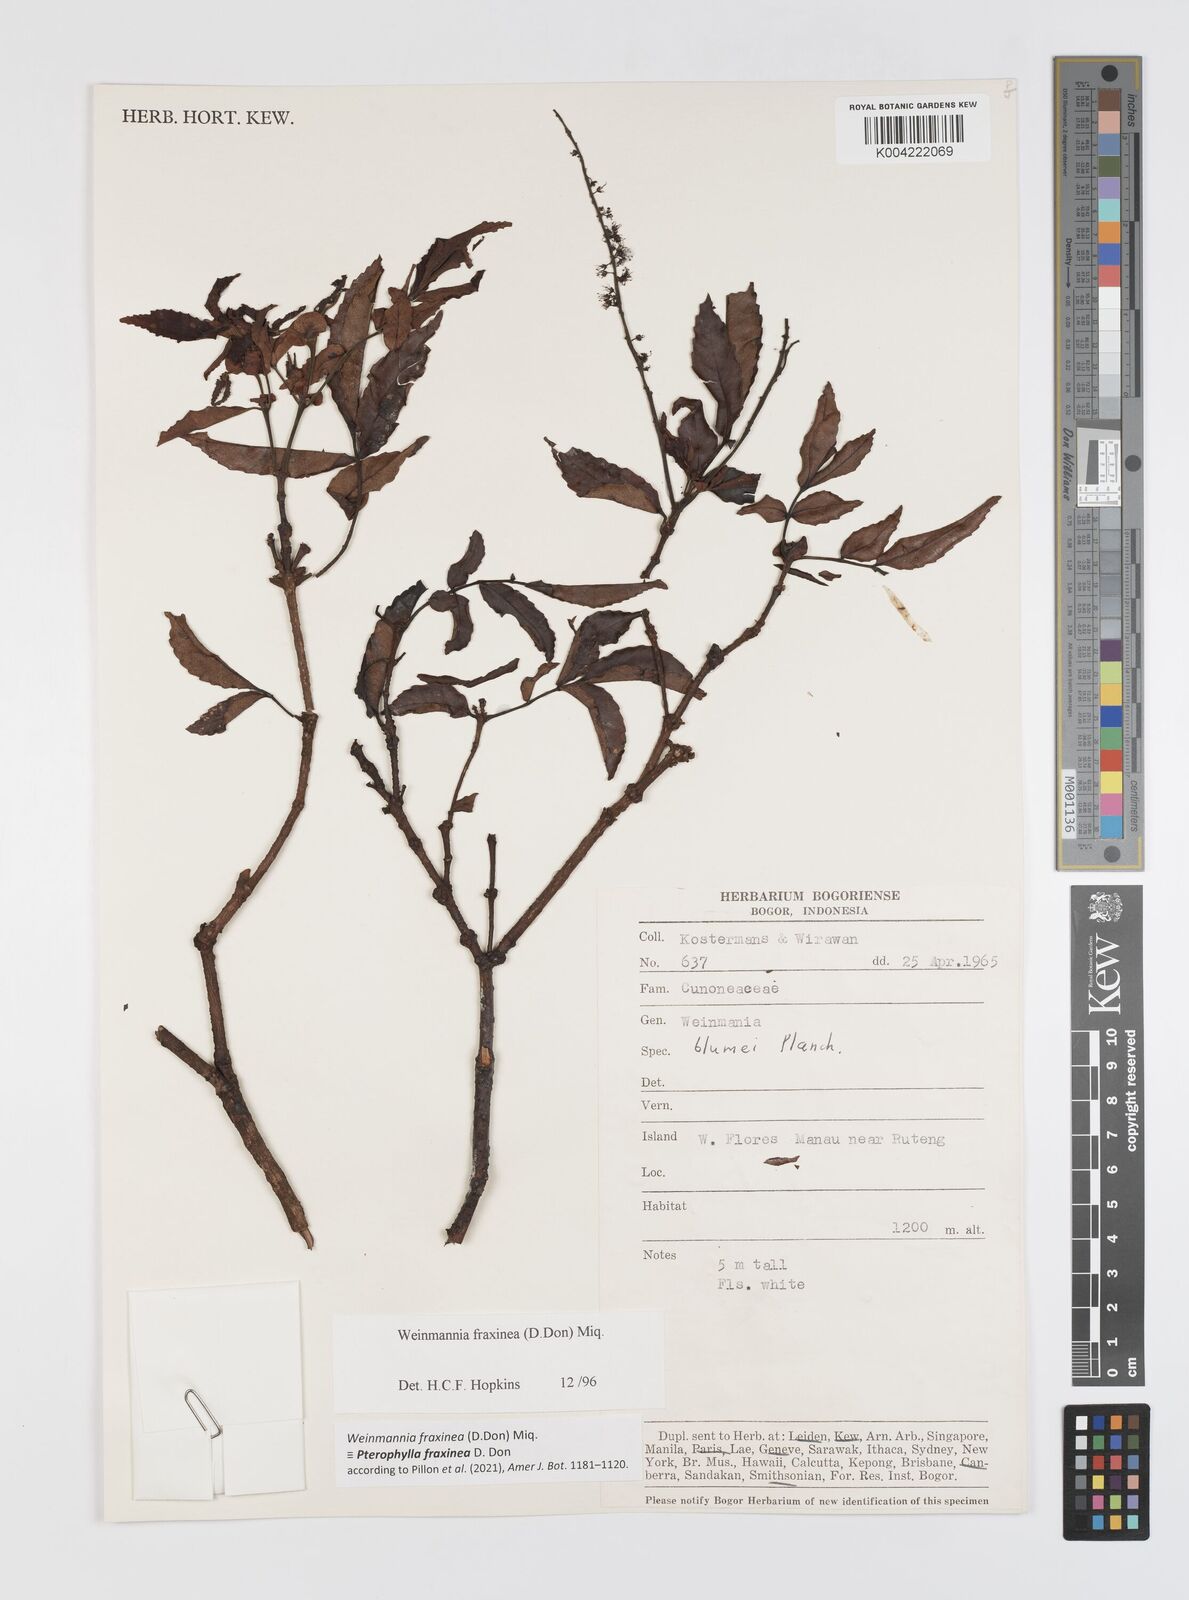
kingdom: Plantae
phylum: Tracheophyta
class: Magnoliopsida
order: Oxalidales
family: Cunoniaceae
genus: Pterophylla
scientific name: Pterophylla fraxinea
